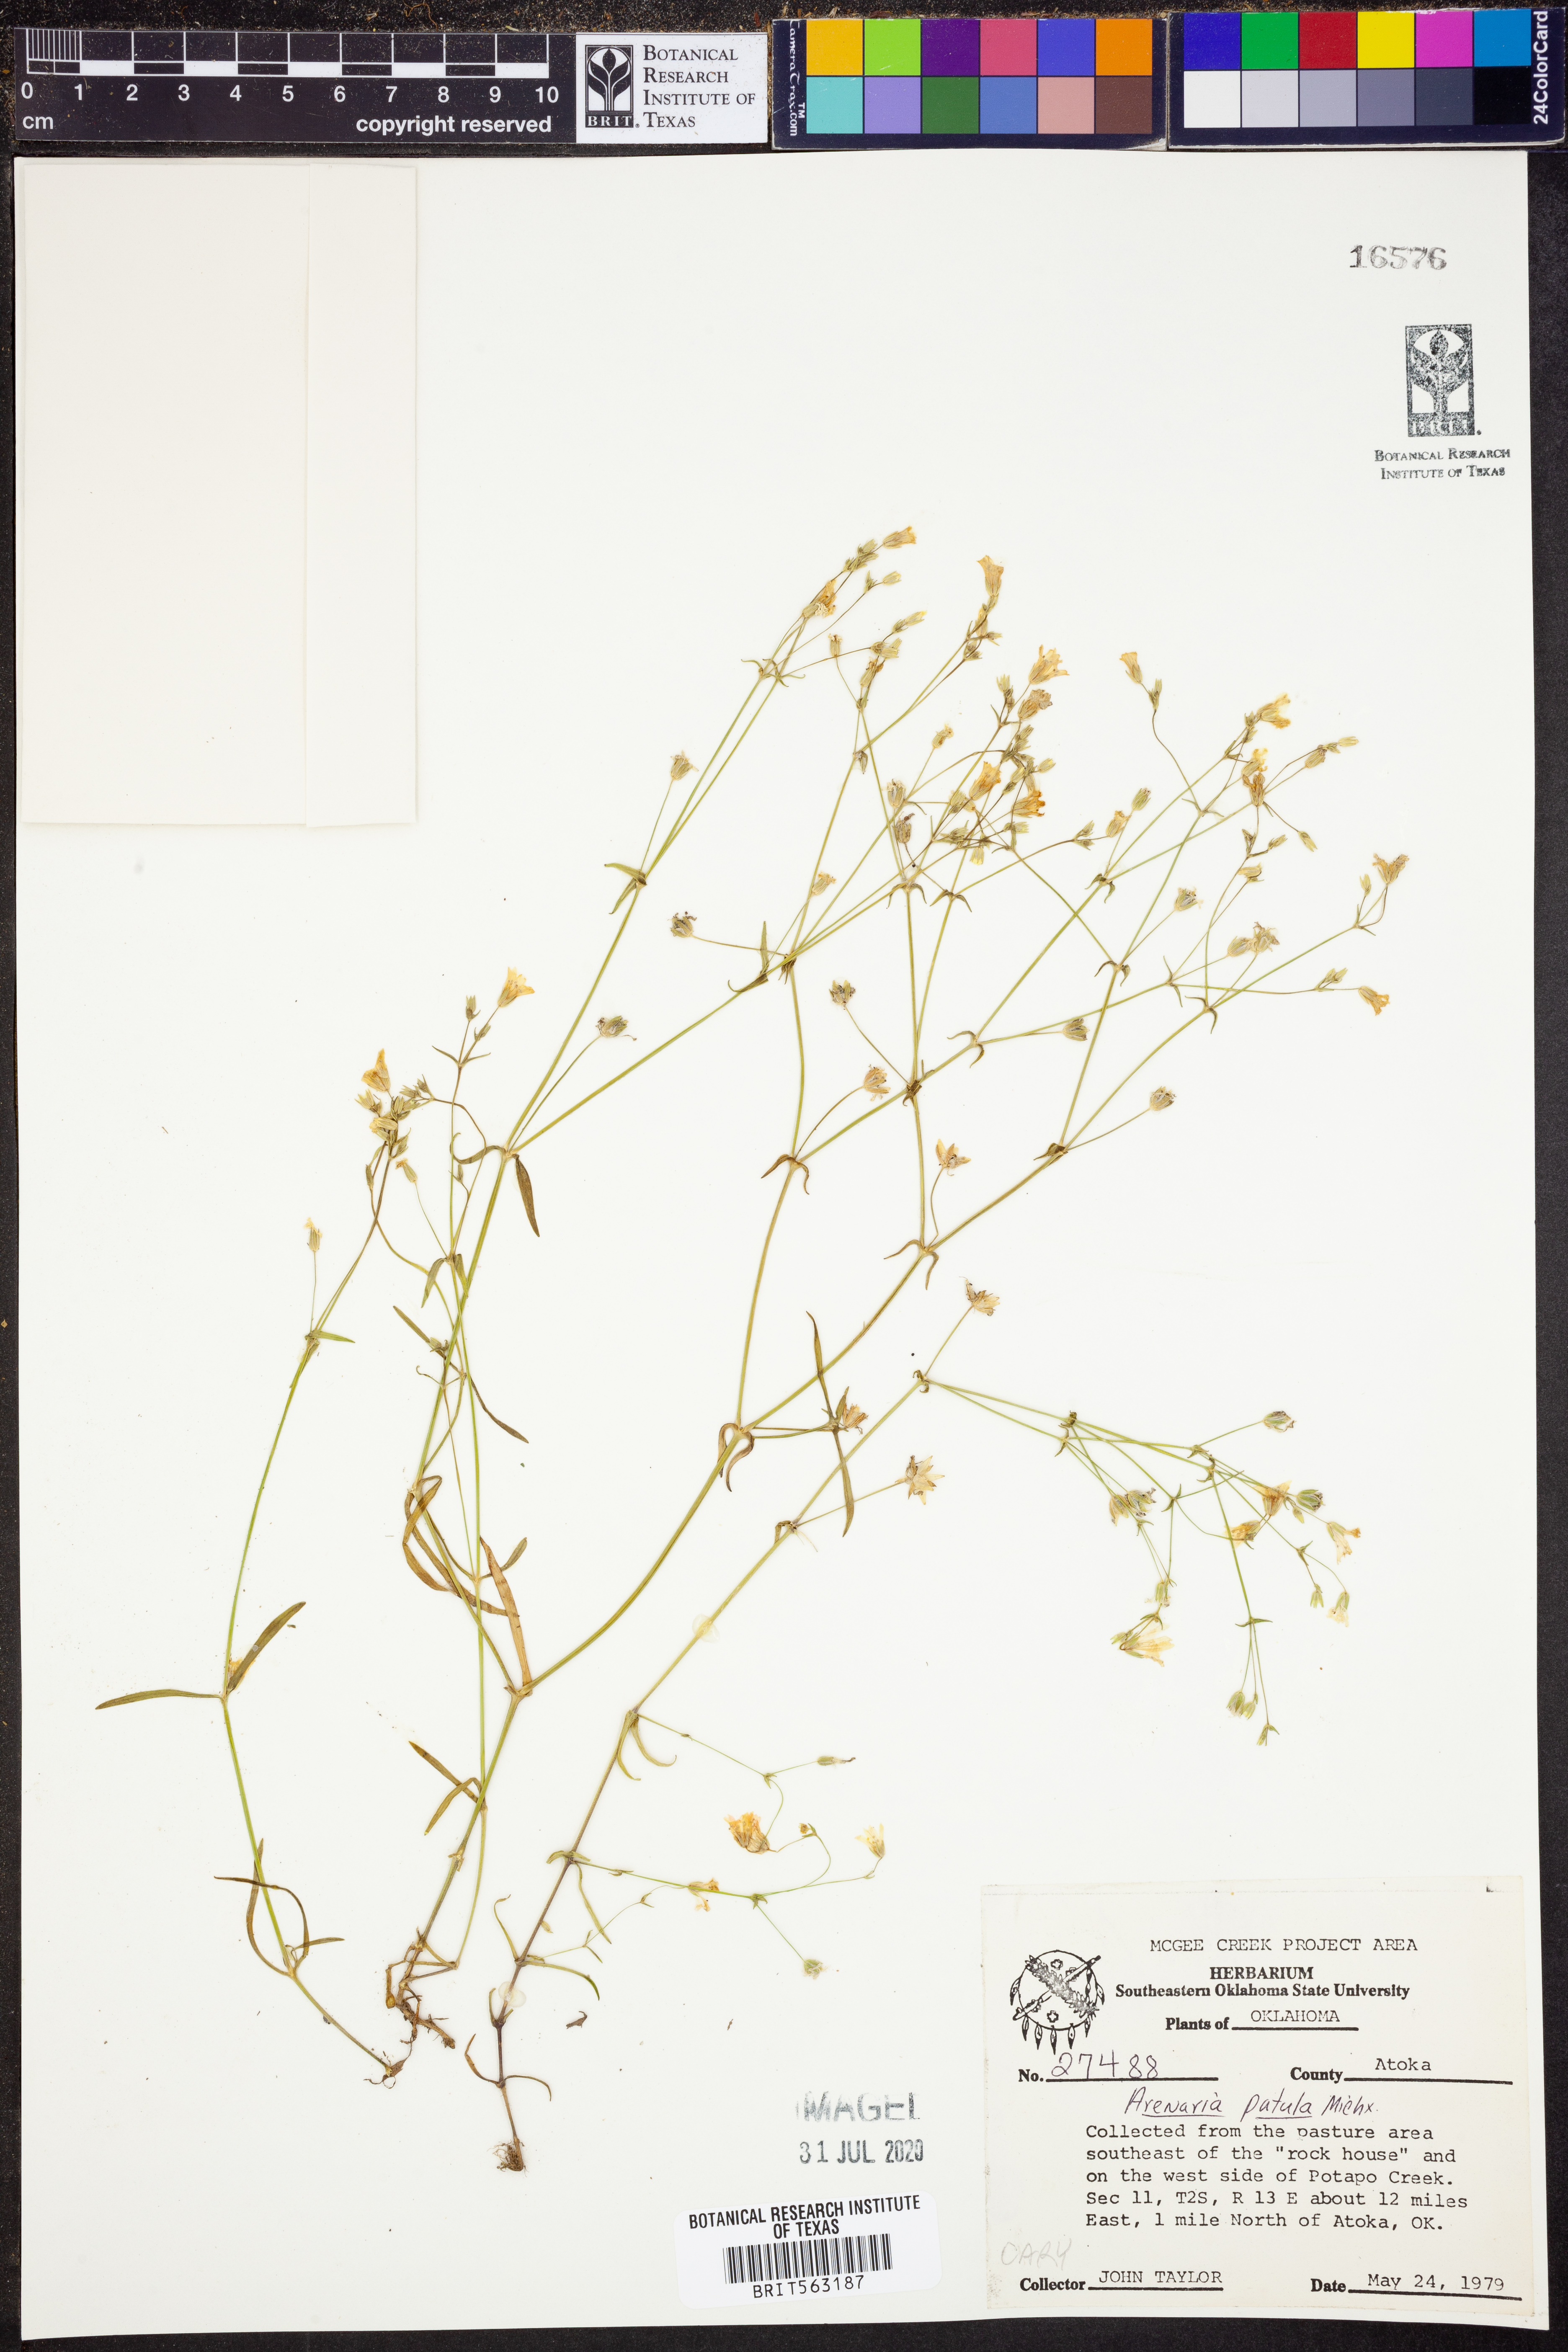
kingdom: Plantae
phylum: Tracheophyta
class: Magnoliopsida
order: Caryophyllales
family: Caryophyllaceae
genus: Mononeuria
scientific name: Mononeuria patula
